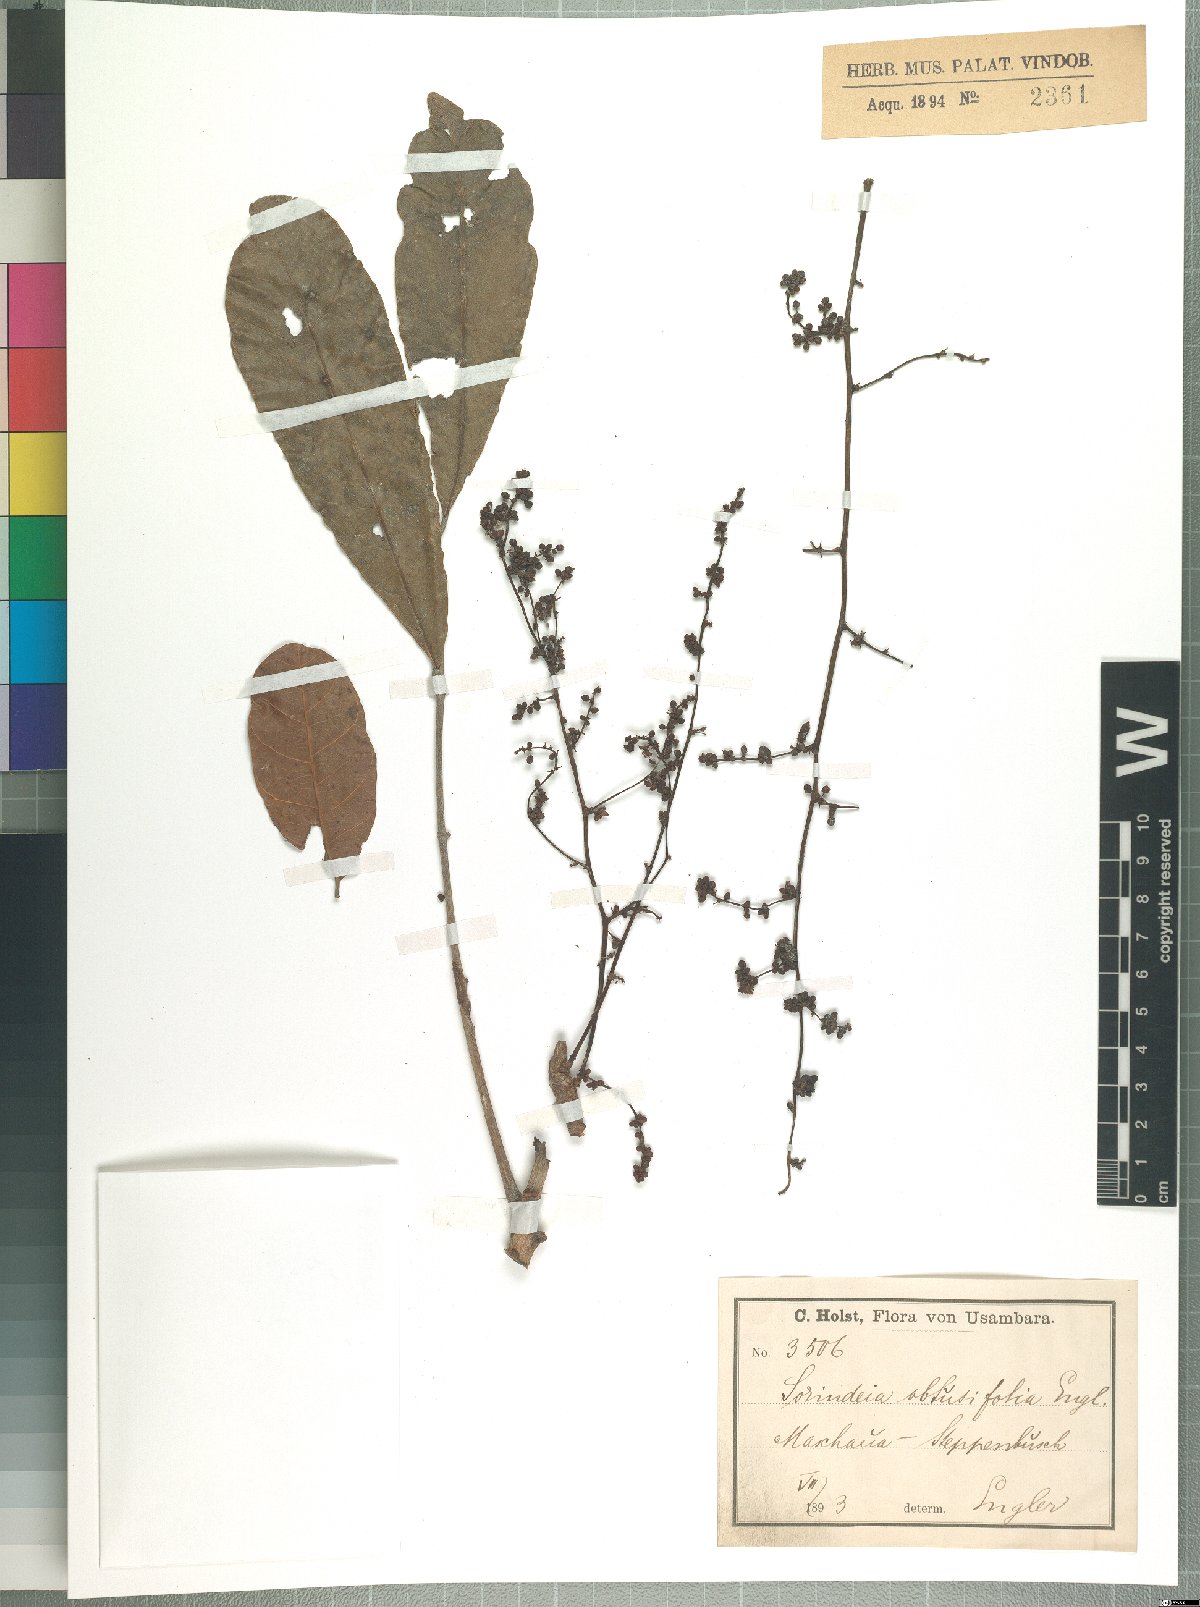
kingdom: Plantae
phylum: Tracheophyta
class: Magnoliopsida
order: Sapindales
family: Anacardiaceae
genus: Sorindeia
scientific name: Sorindeia madagascariensis
